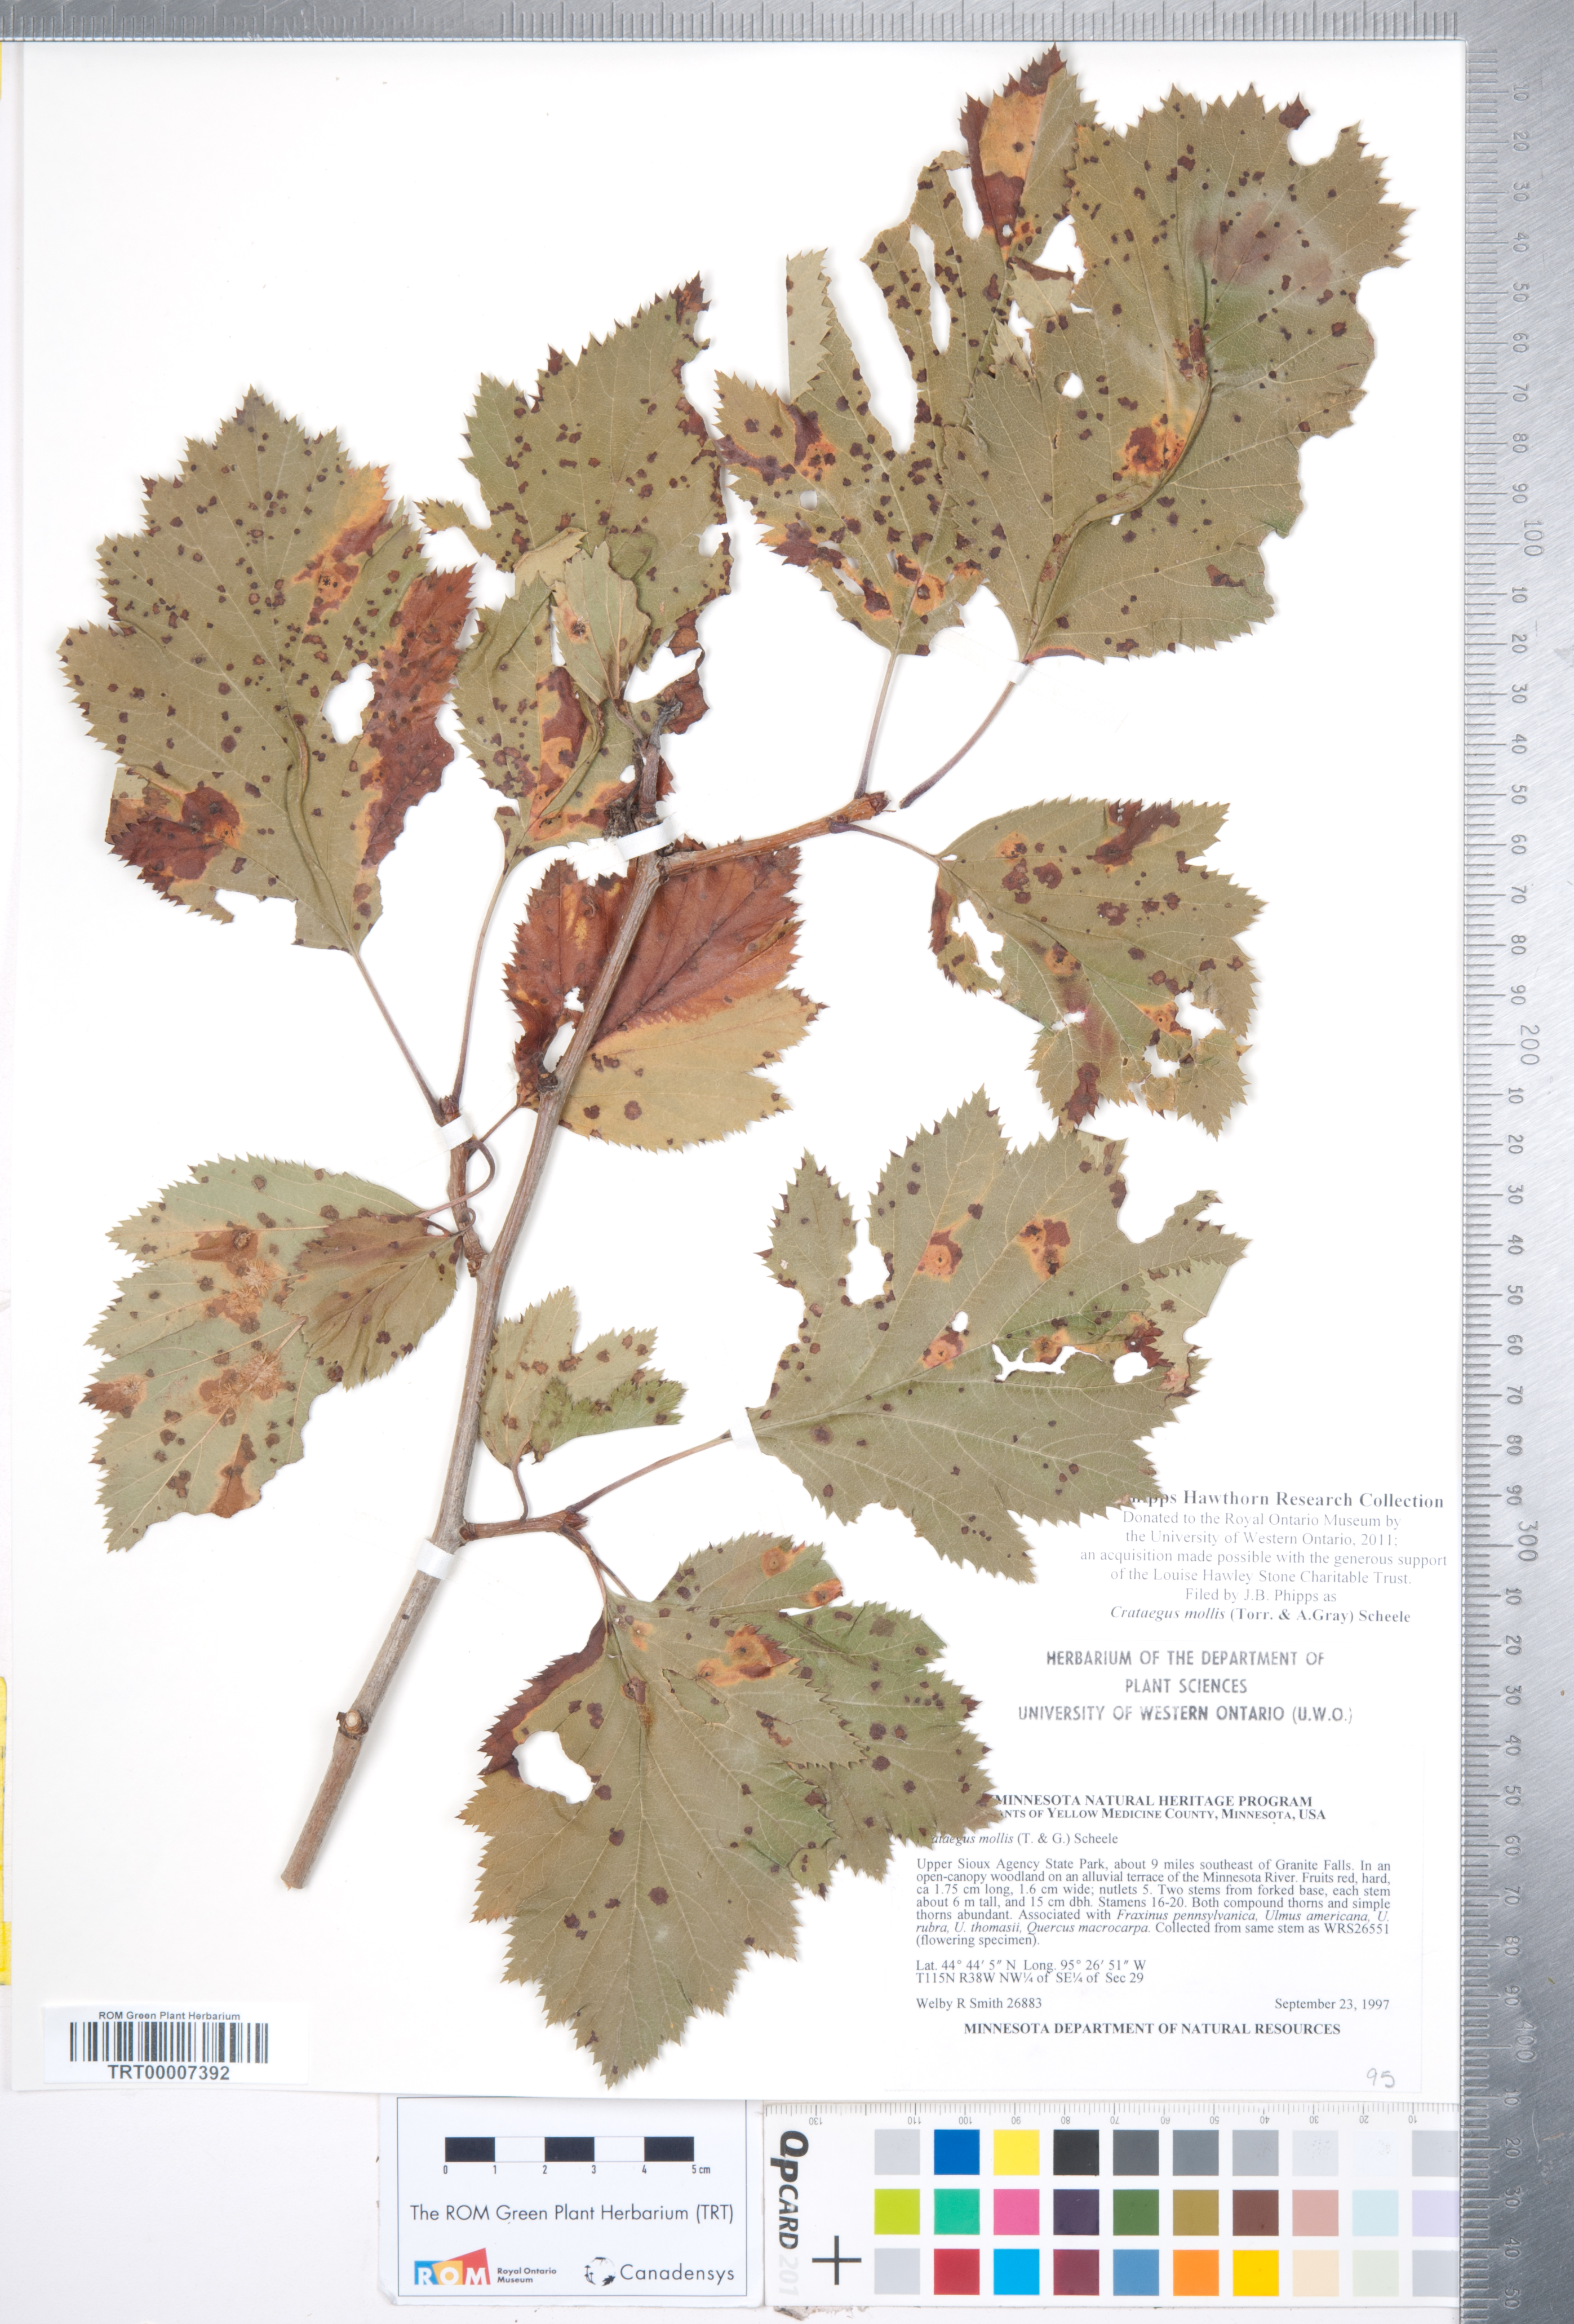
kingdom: Plantae
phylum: Tracheophyta
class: Magnoliopsida
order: Rosales
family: Rosaceae
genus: Crataegus
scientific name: Crataegus mollis
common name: Downy hawthorn
